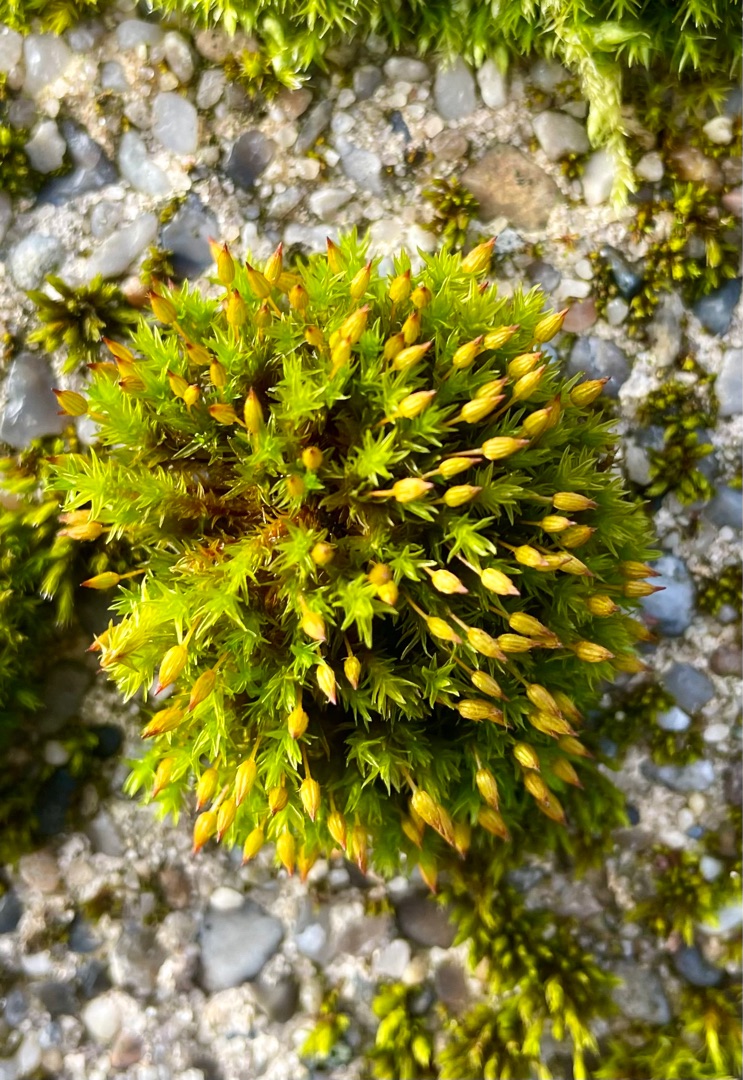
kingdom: Plantae
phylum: Bryophyta
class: Bryopsida
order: Orthotrichales
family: Orthotrichaceae
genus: Orthotrichum
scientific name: Orthotrichum anomalum
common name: Mørk furehætte
